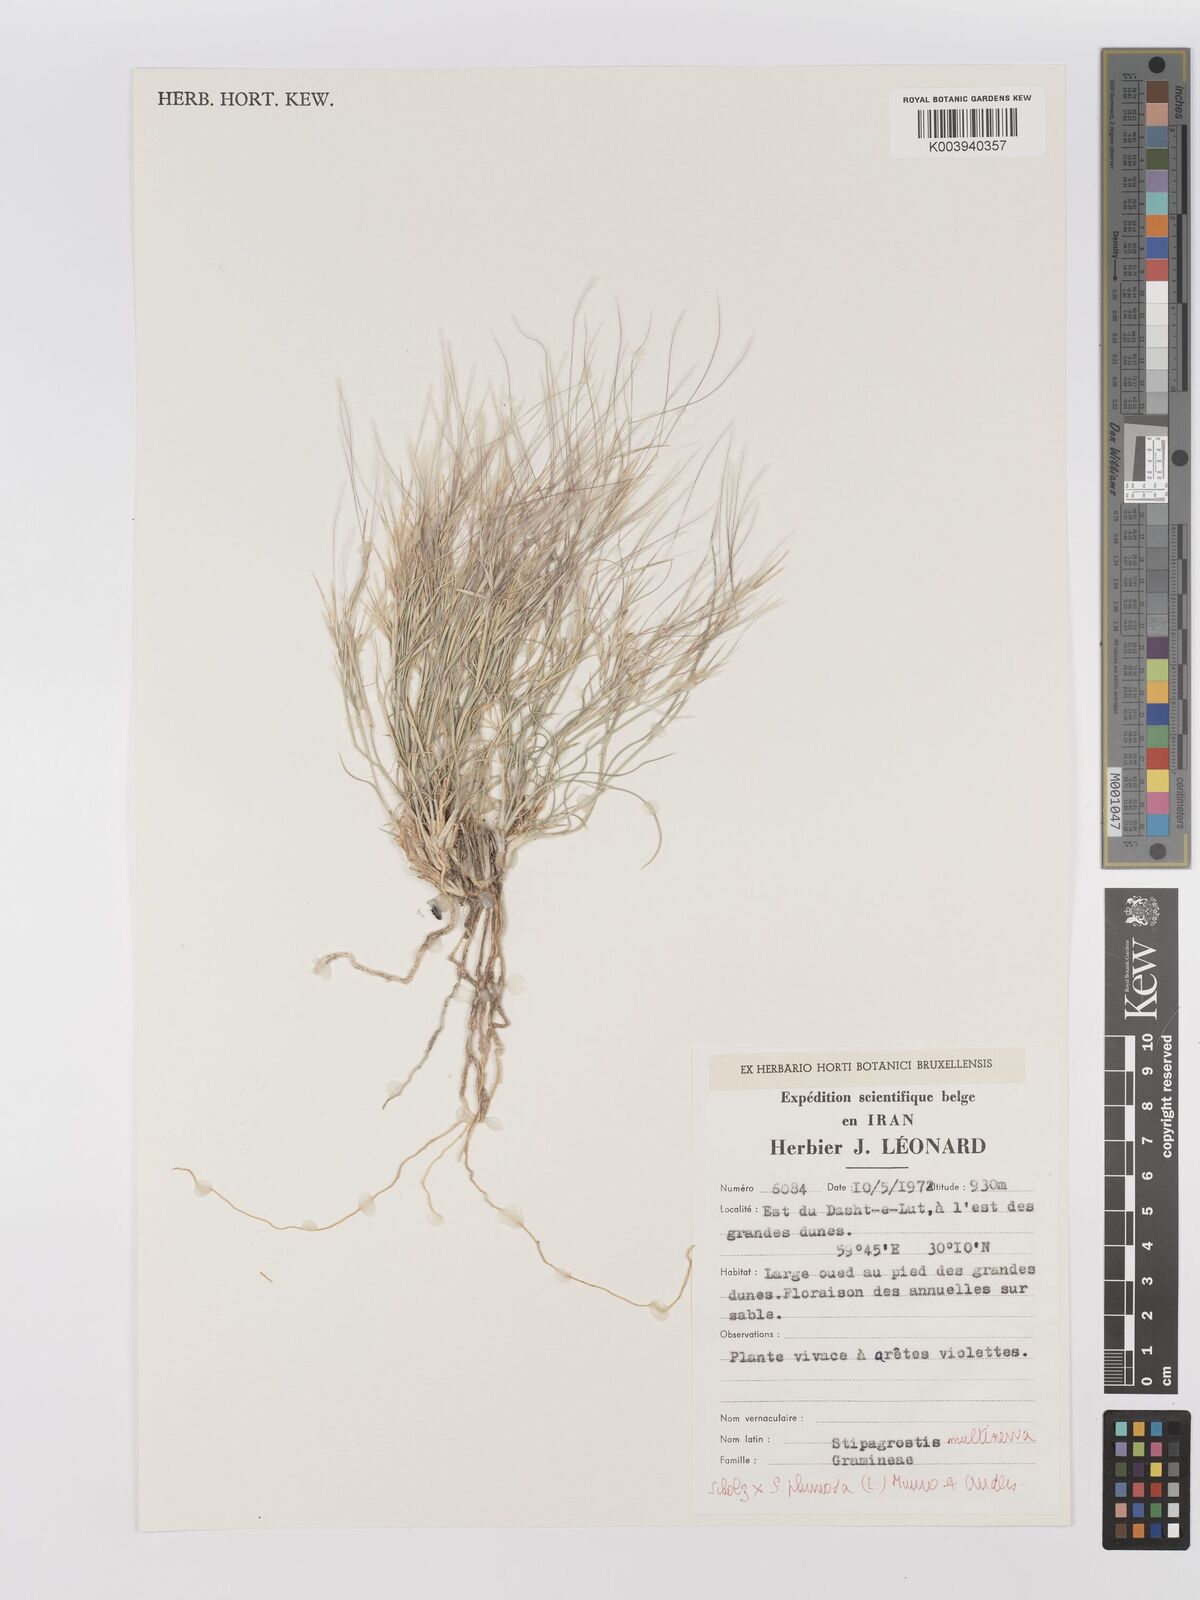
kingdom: Plantae
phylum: Tracheophyta
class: Liliopsida
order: Poales
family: Poaceae
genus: Stipagrostis
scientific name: Stipagrostis
